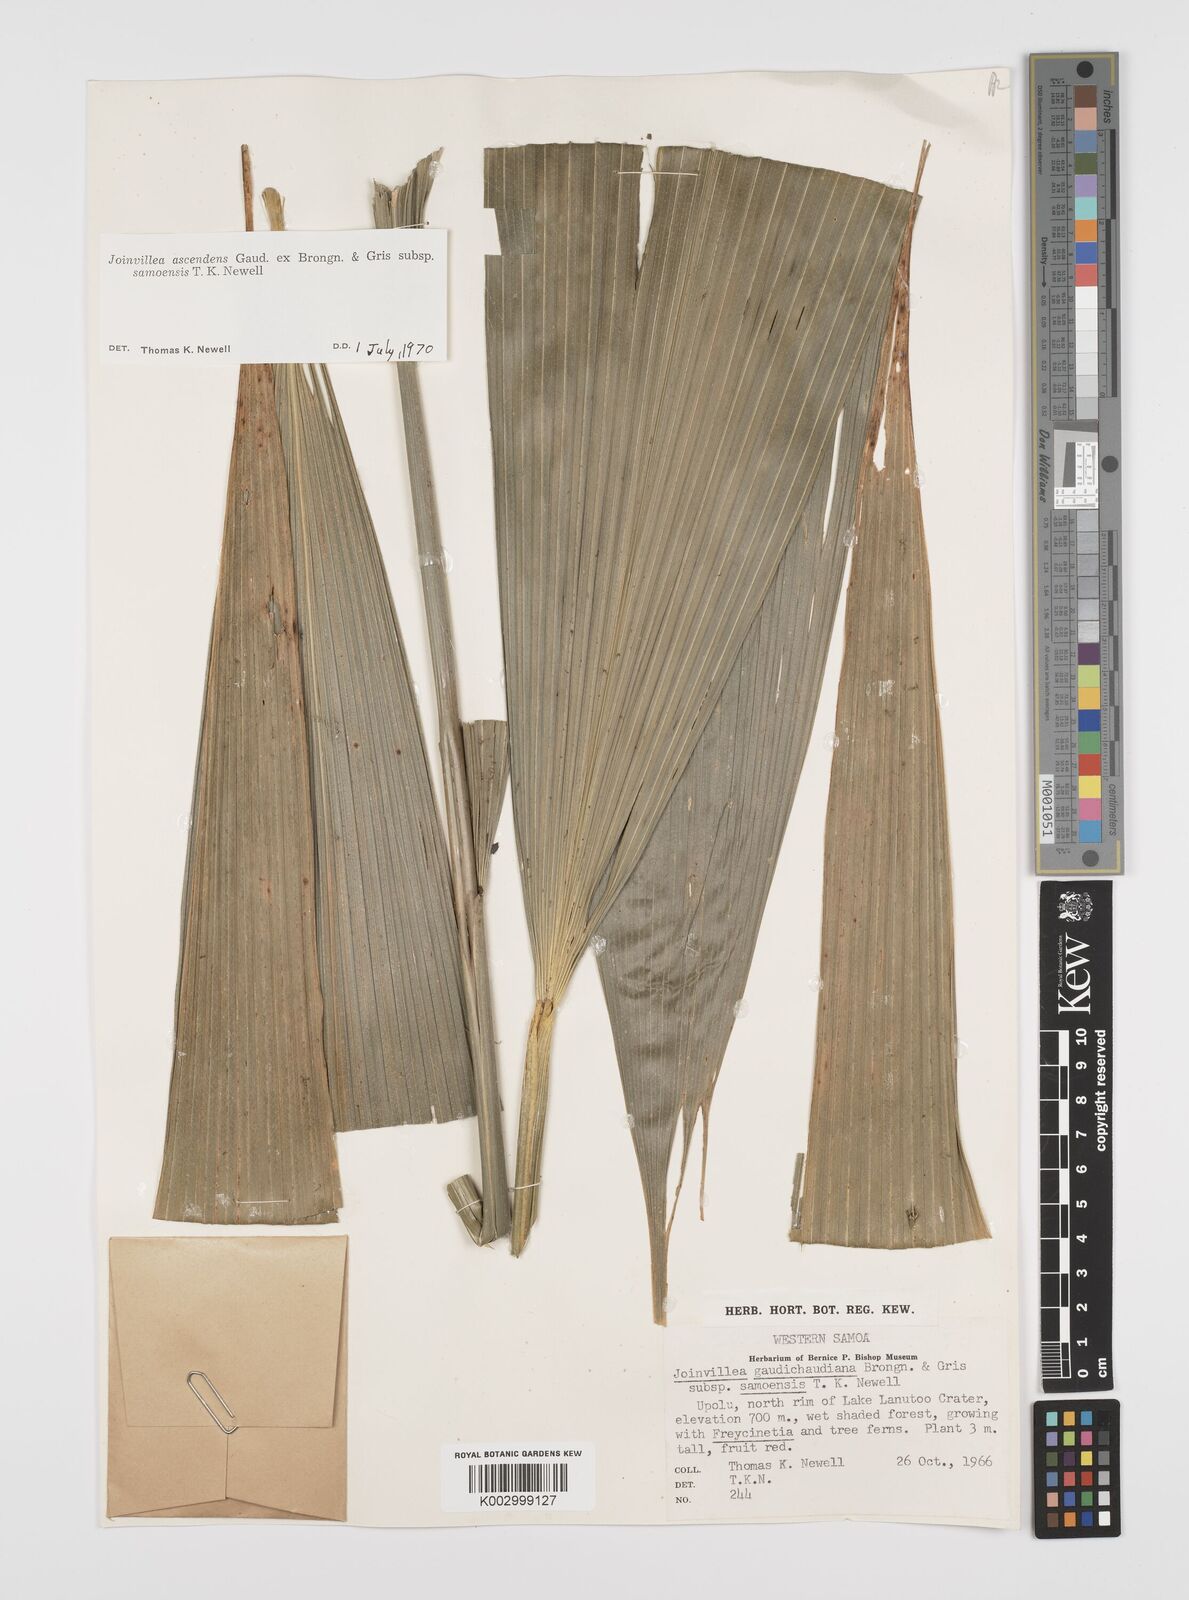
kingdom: Plantae
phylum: Tracheophyta
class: Liliopsida
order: Poales
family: Joinvilleaceae
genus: Joinvillea
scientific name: Joinvillea bryanii
